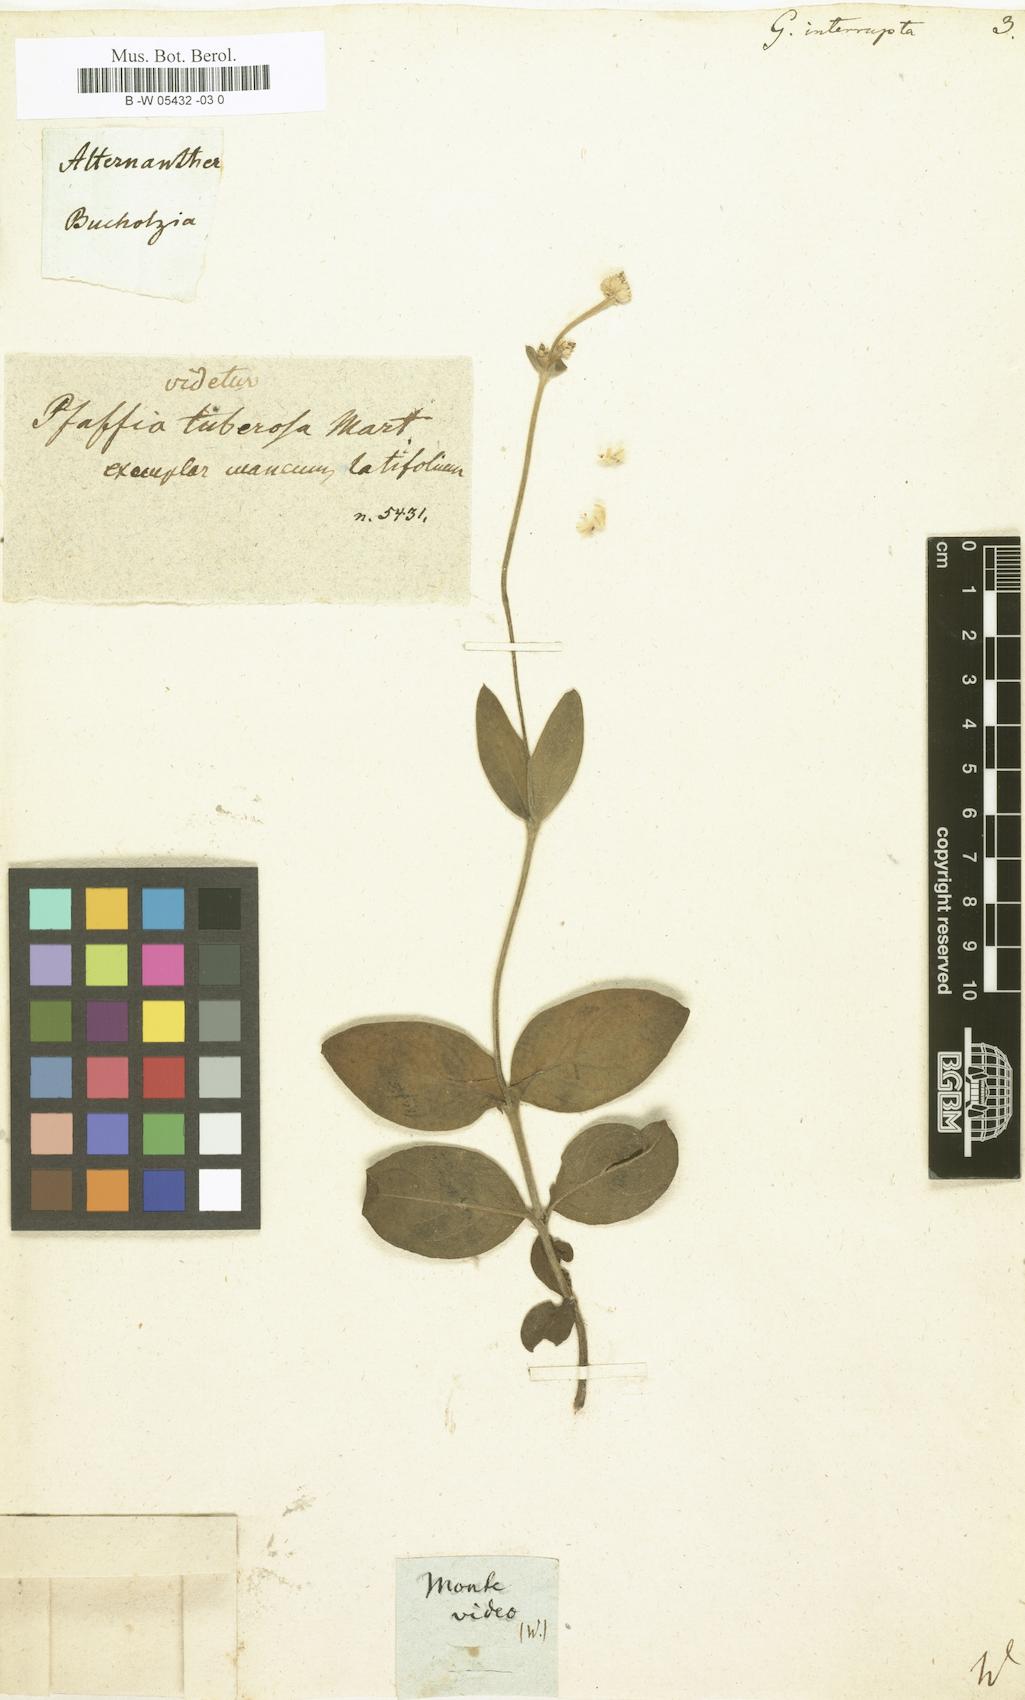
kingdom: Plantae
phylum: Tracheophyta
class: Magnoliopsida
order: Caryophyllales
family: Amaranthaceae
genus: Gomphrena
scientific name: Gomphrena sericea
